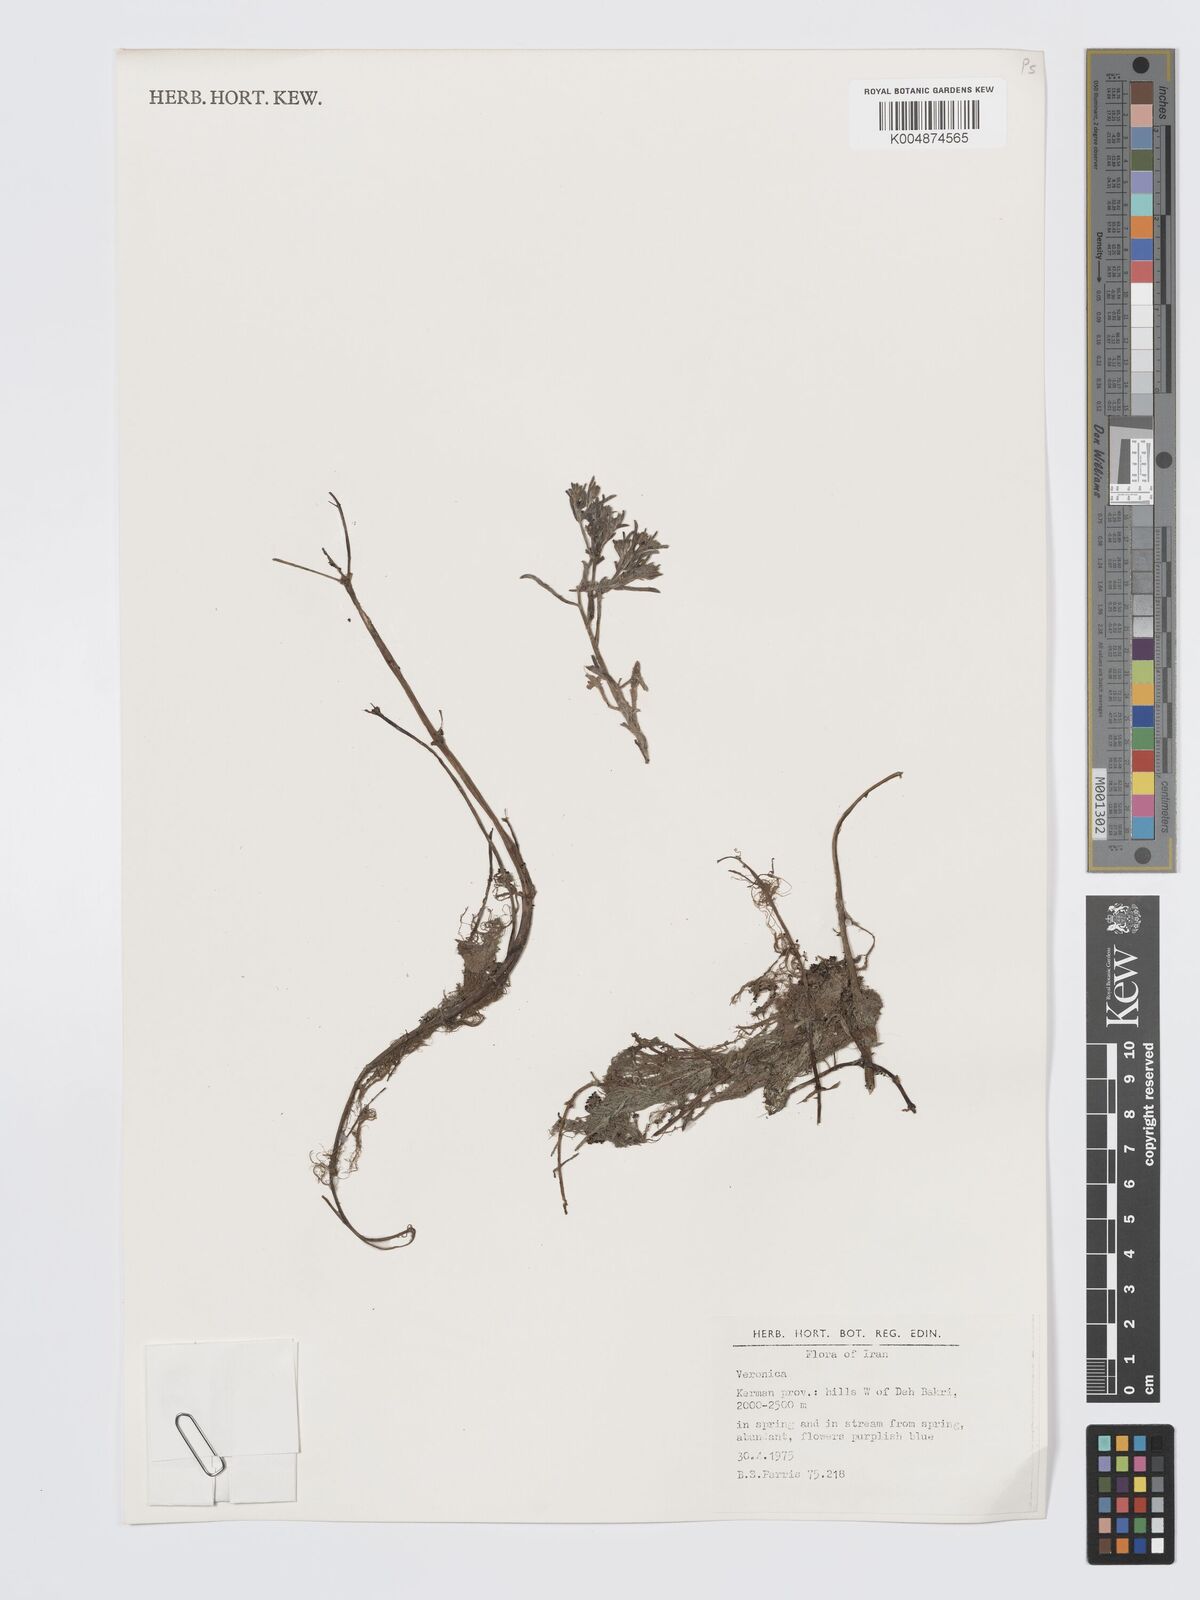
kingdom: Plantae
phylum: Tracheophyta
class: Magnoliopsida
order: Lamiales
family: Plantaginaceae
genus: Veronica
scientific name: Veronica
